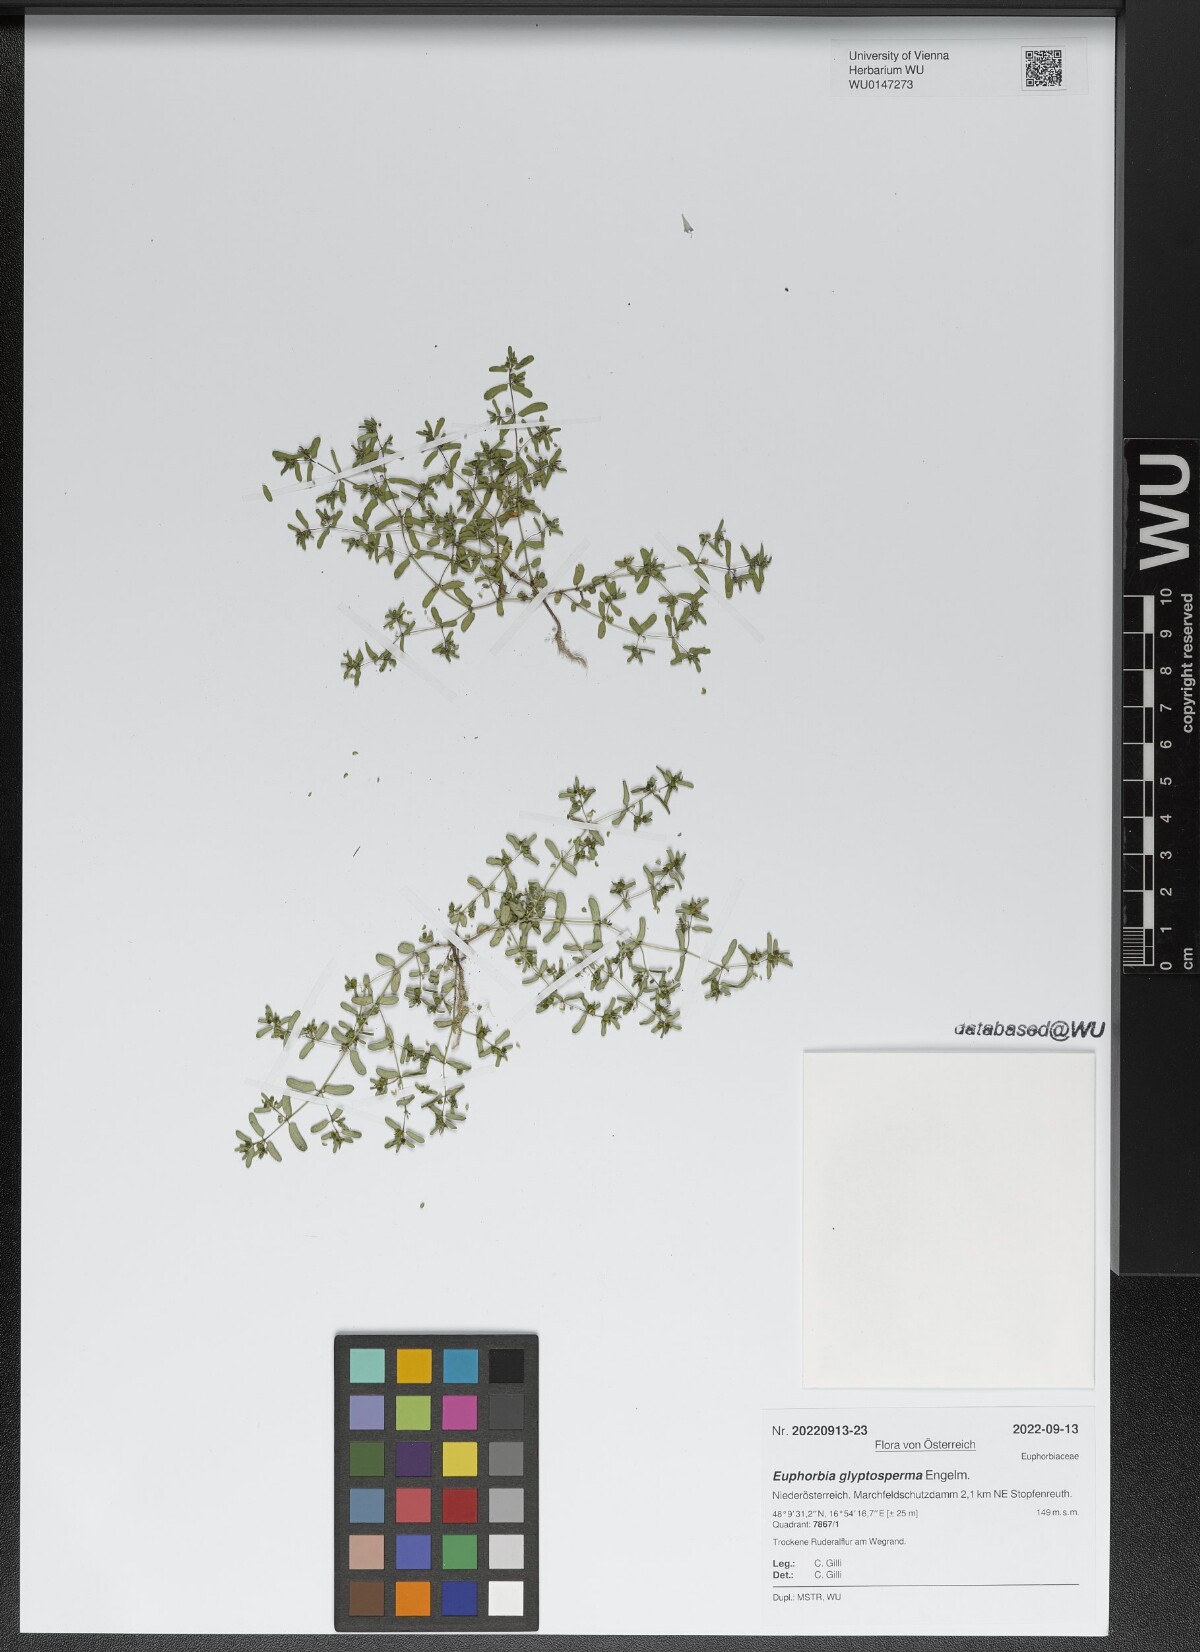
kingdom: Plantae
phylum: Tracheophyta
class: Magnoliopsida
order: Malpighiales
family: Euphorbiaceae
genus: Euphorbia
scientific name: Euphorbia glyptosperma
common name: Corrugate-seeded spurge
